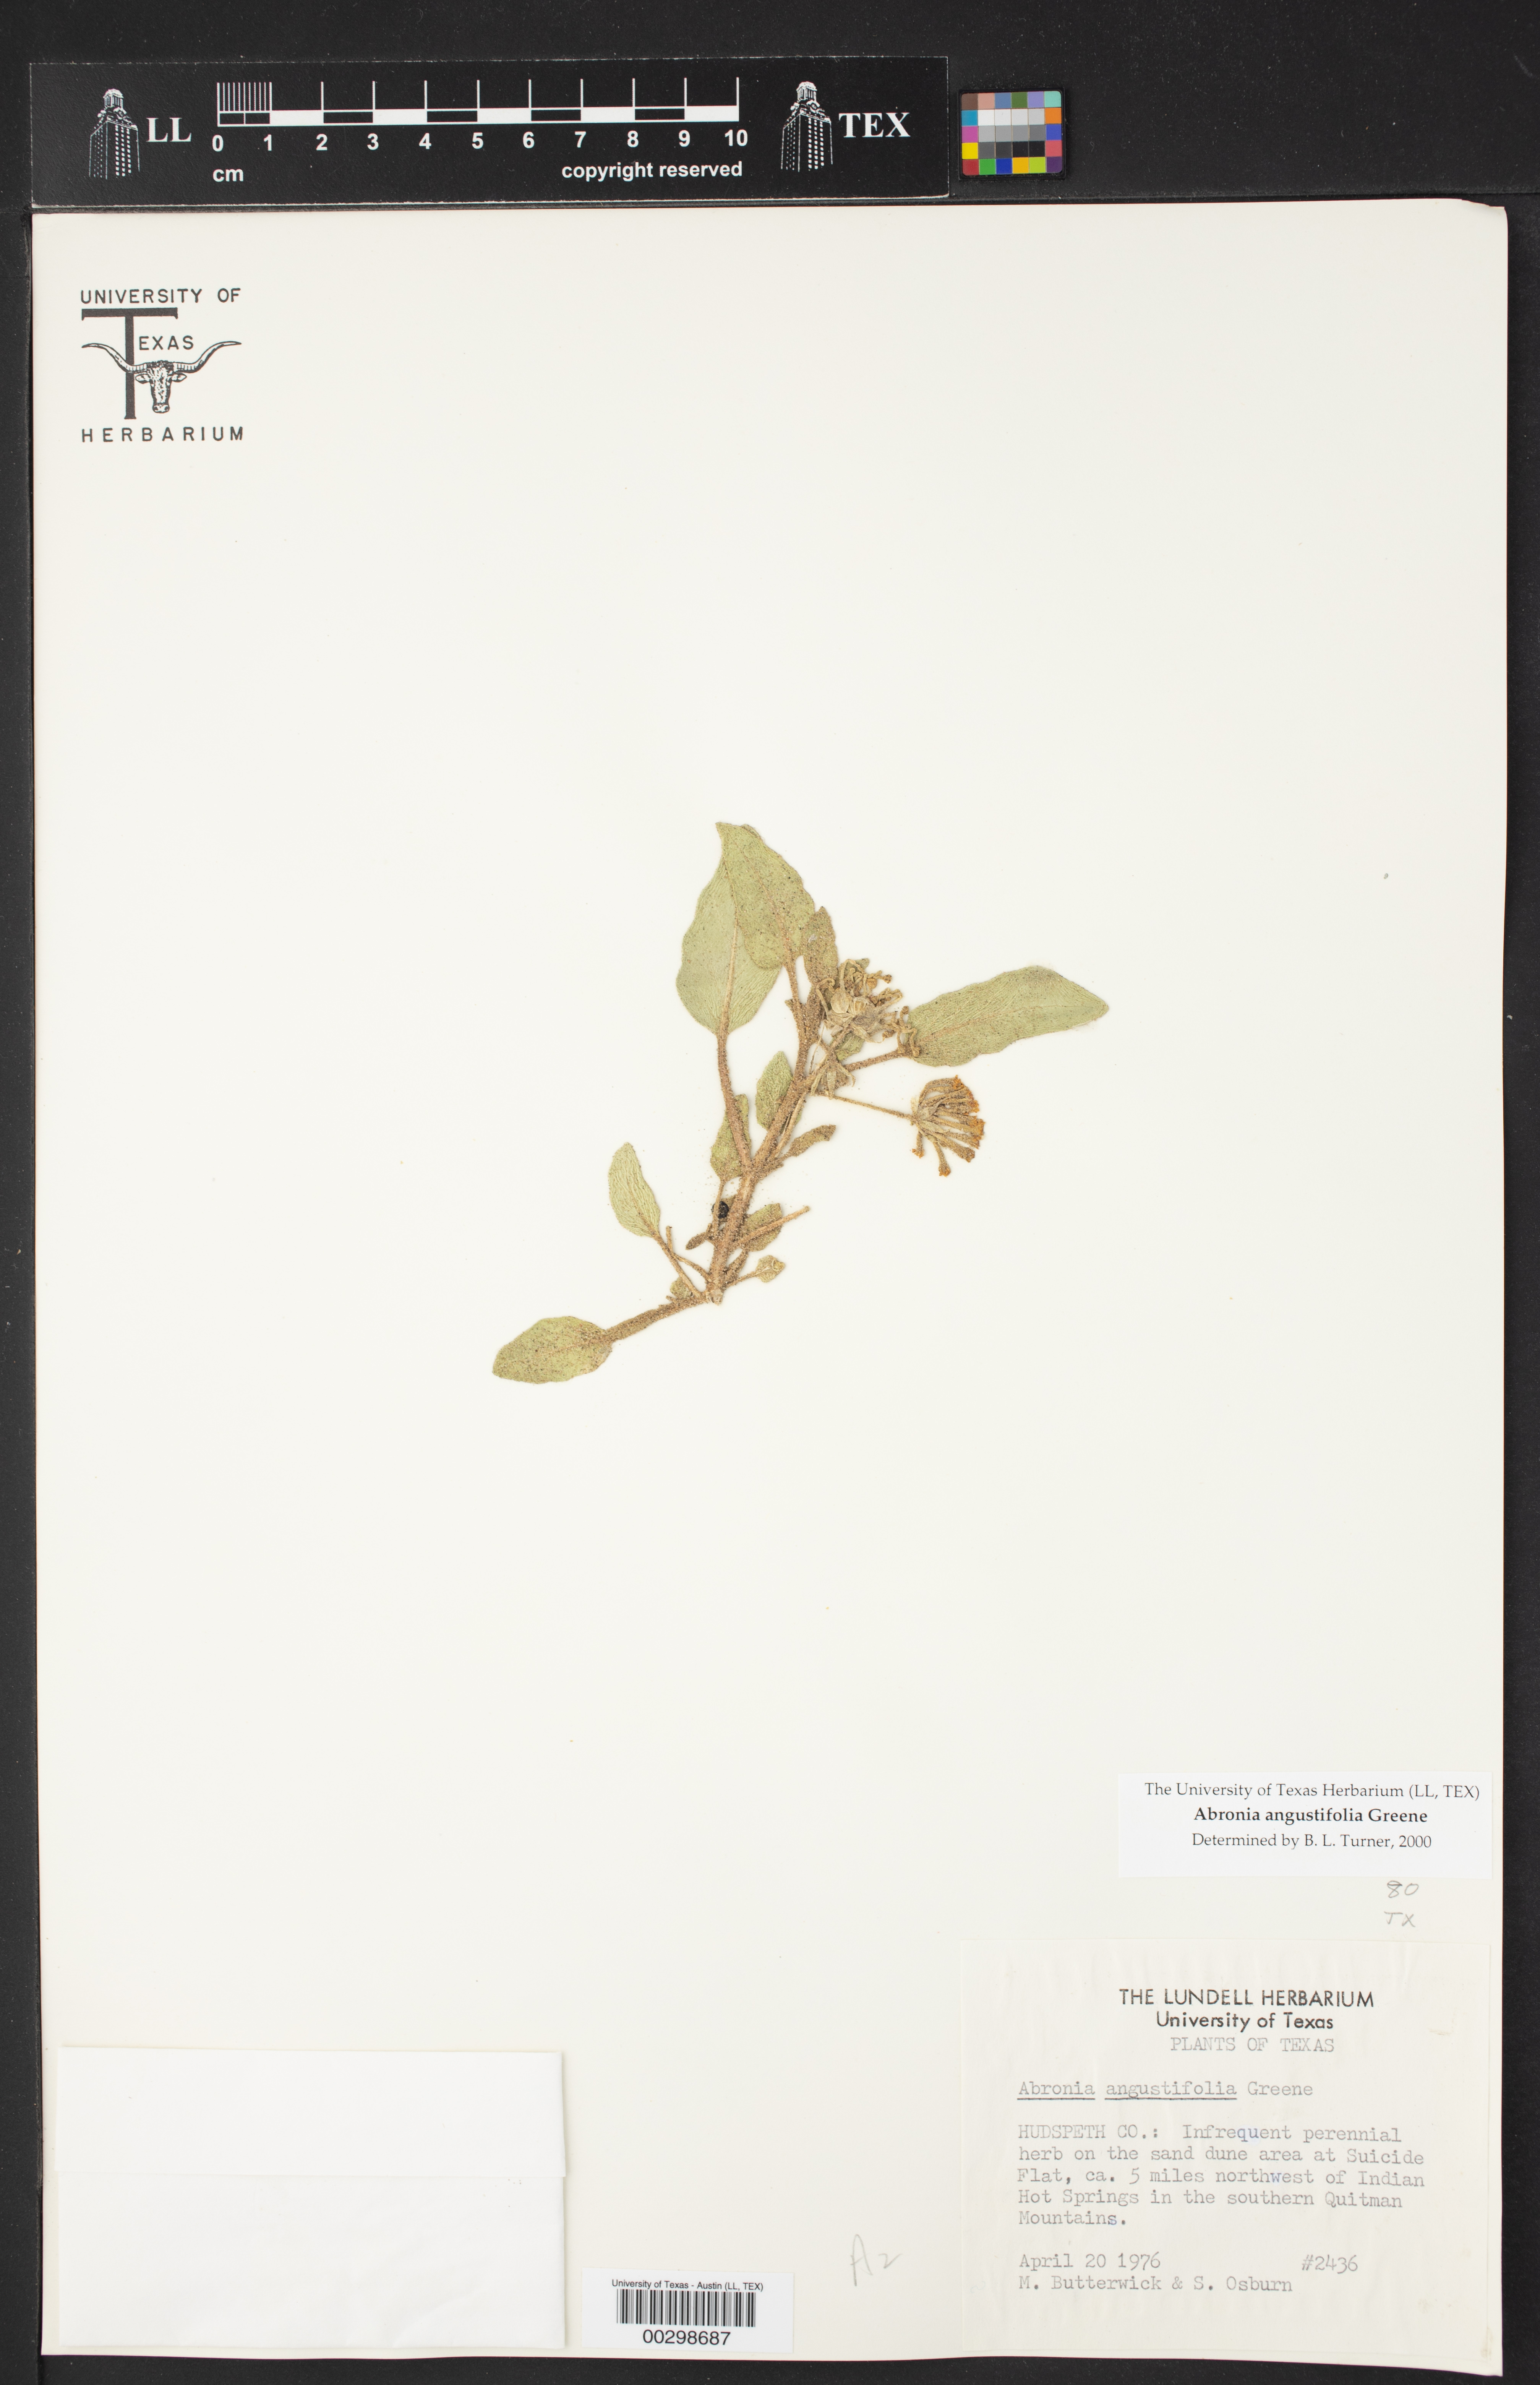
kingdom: Plantae
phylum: Tracheophyta
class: Magnoliopsida
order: Caryophyllales
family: Nyctaginaceae
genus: Abronia
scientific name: Abronia angustifolia
